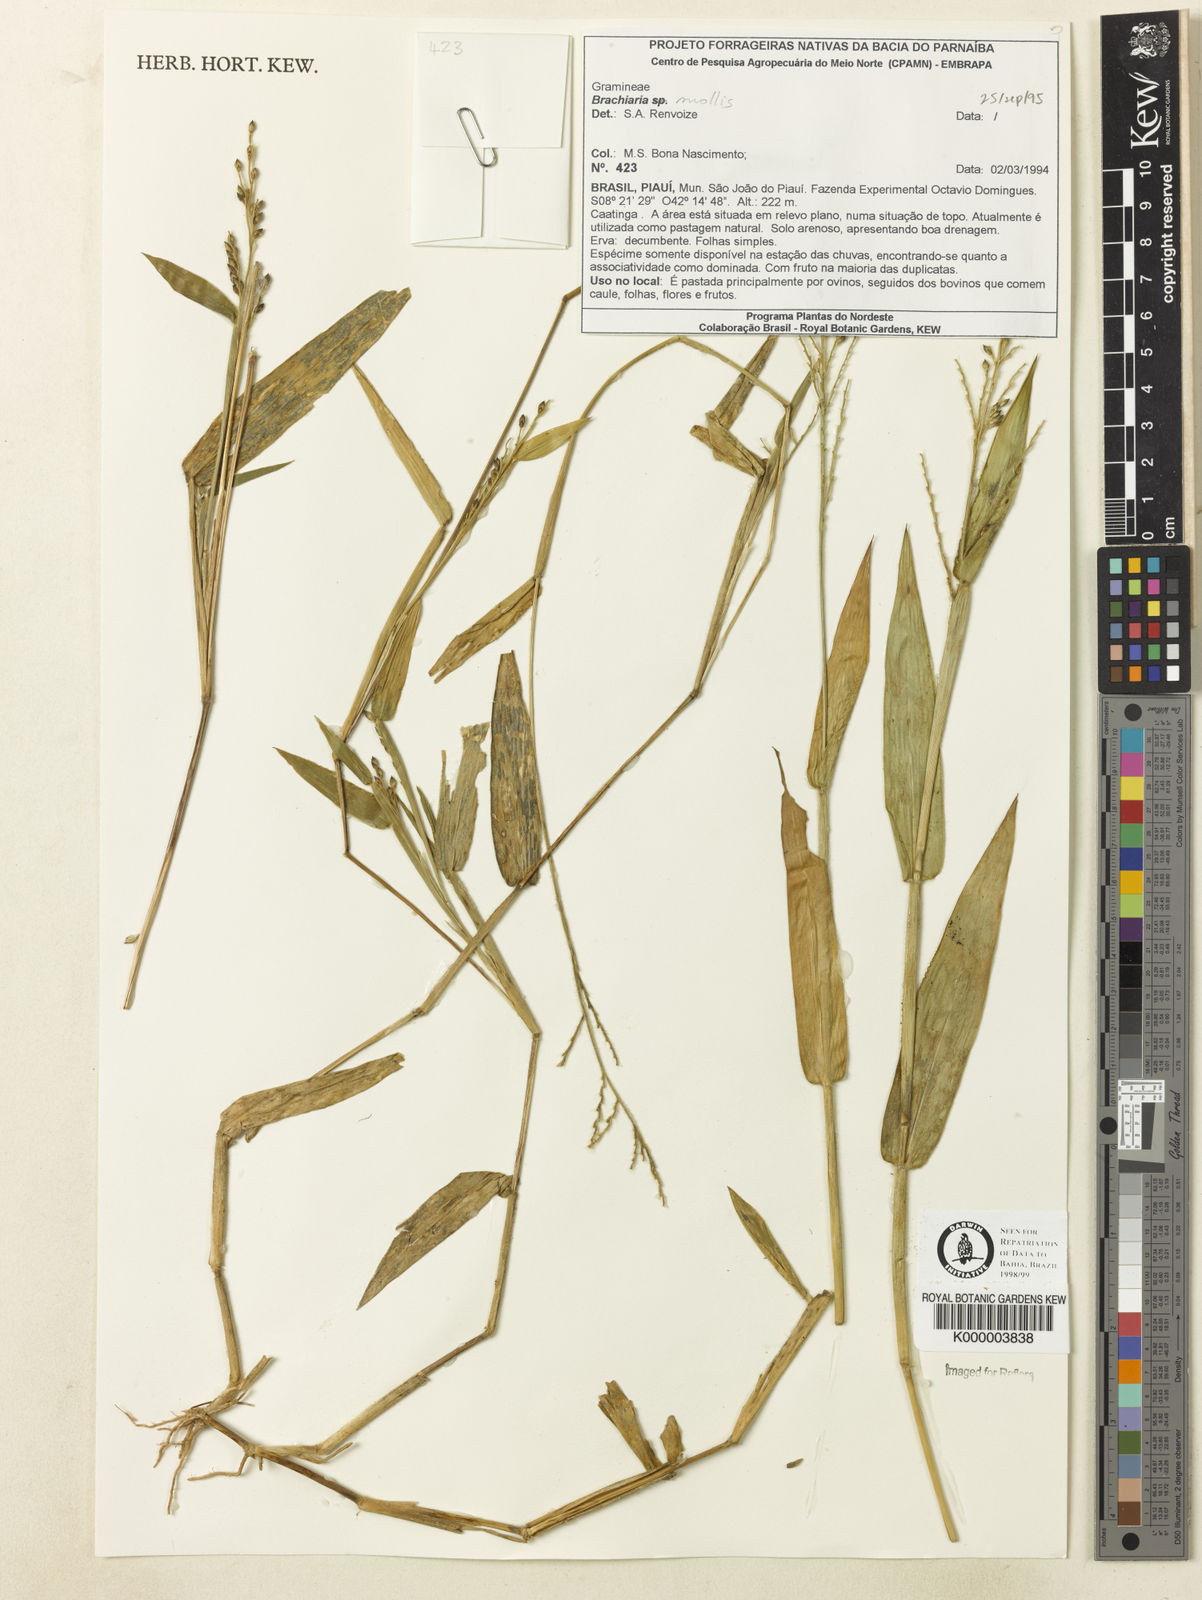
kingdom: Plantae
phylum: Tracheophyta
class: Liliopsida
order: Poales
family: Poaceae
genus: Urochloa
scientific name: Urochloa mollis
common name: Grass
